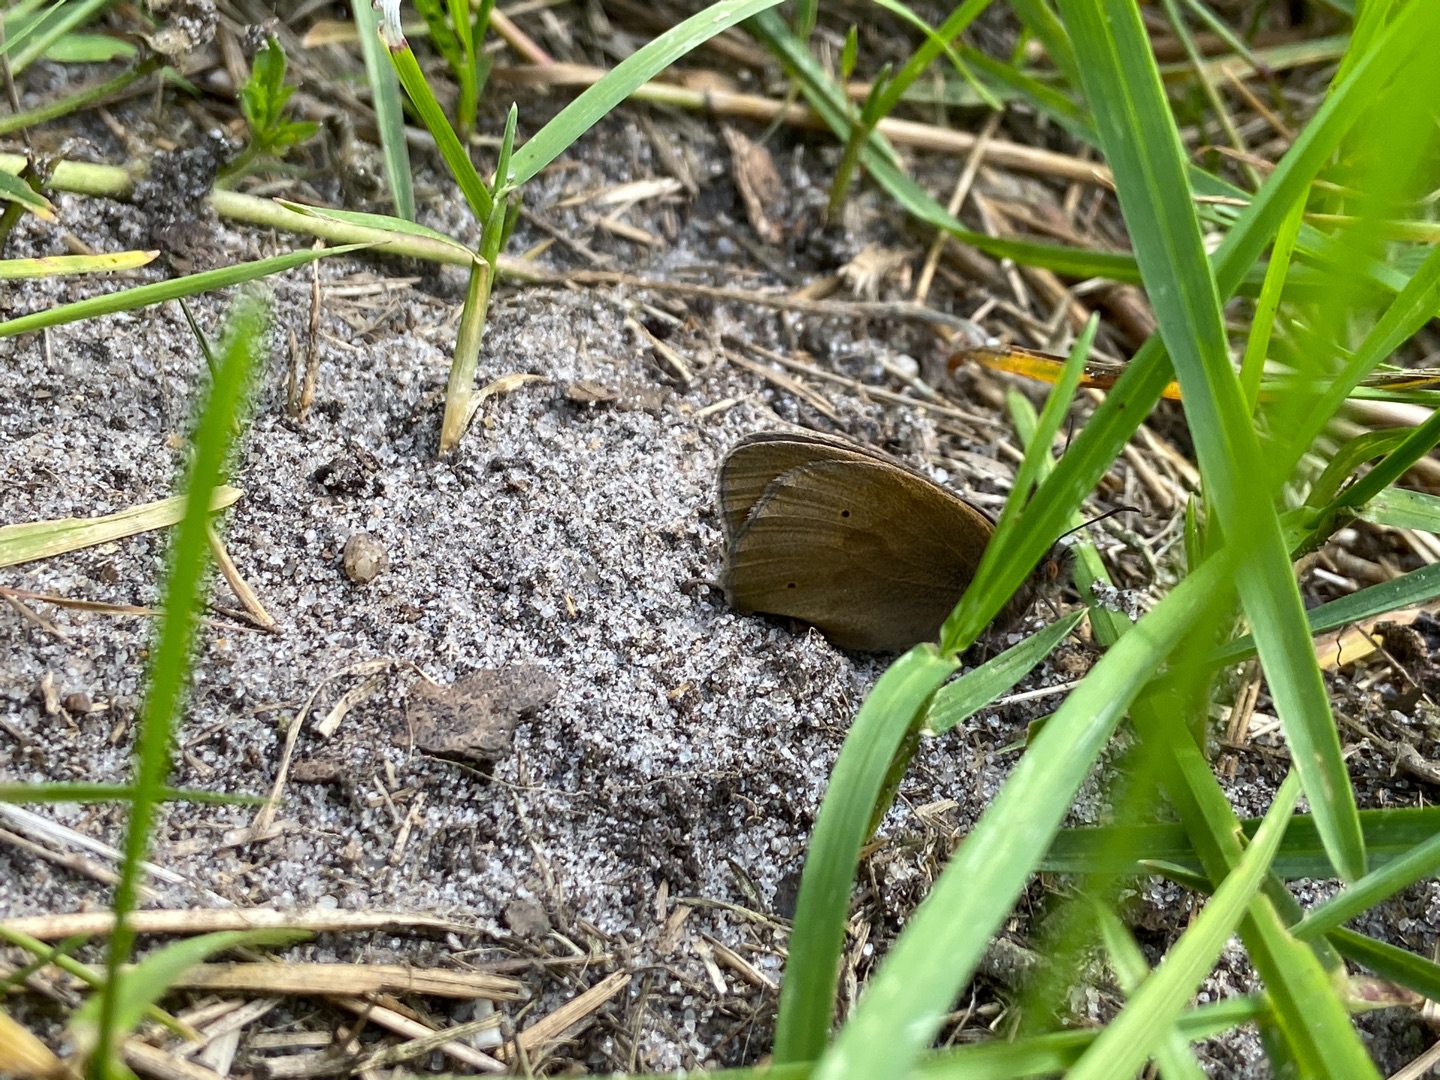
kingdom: Animalia
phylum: Arthropoda
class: Insecta
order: Lepidoptera
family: Nymphalidae
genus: Maniola
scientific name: Maniola jurtina
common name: Græsrandøje
